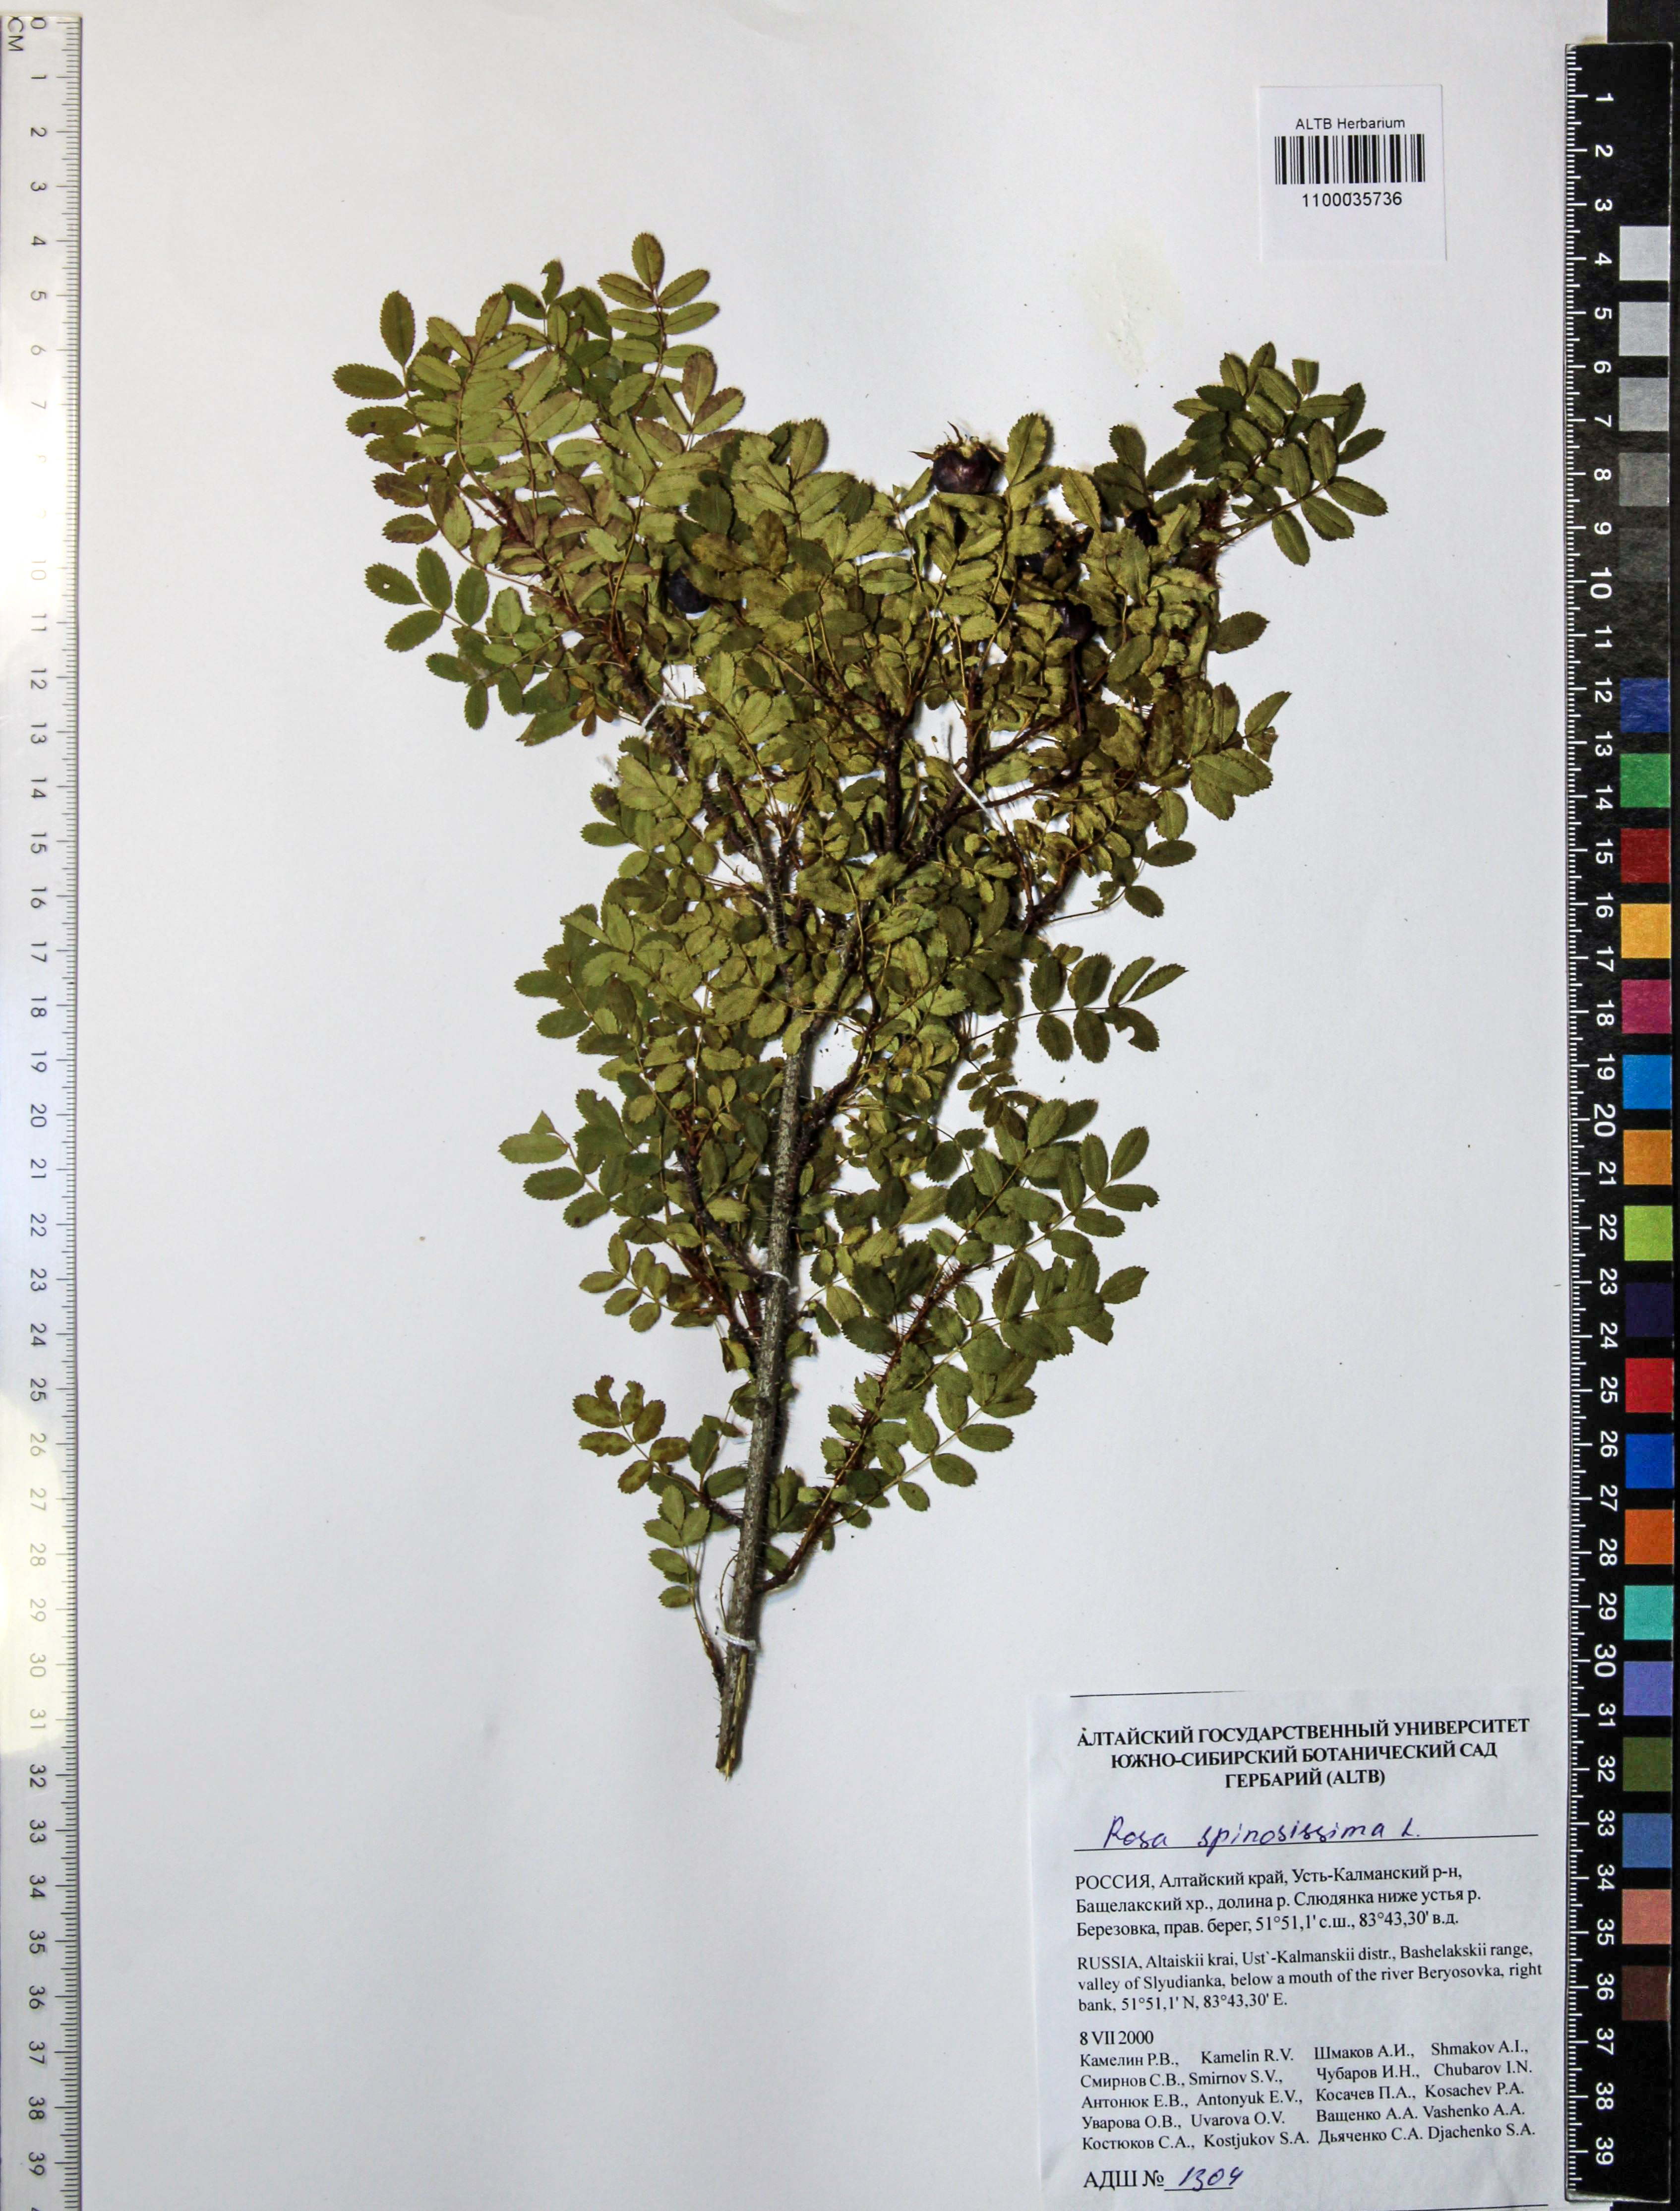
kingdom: Plantae
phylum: Tracheophyta
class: Magnoliopsida
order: Rosales
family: Rosaceae
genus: Rosa
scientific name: Rosa spinosissima
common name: Burnet rose
